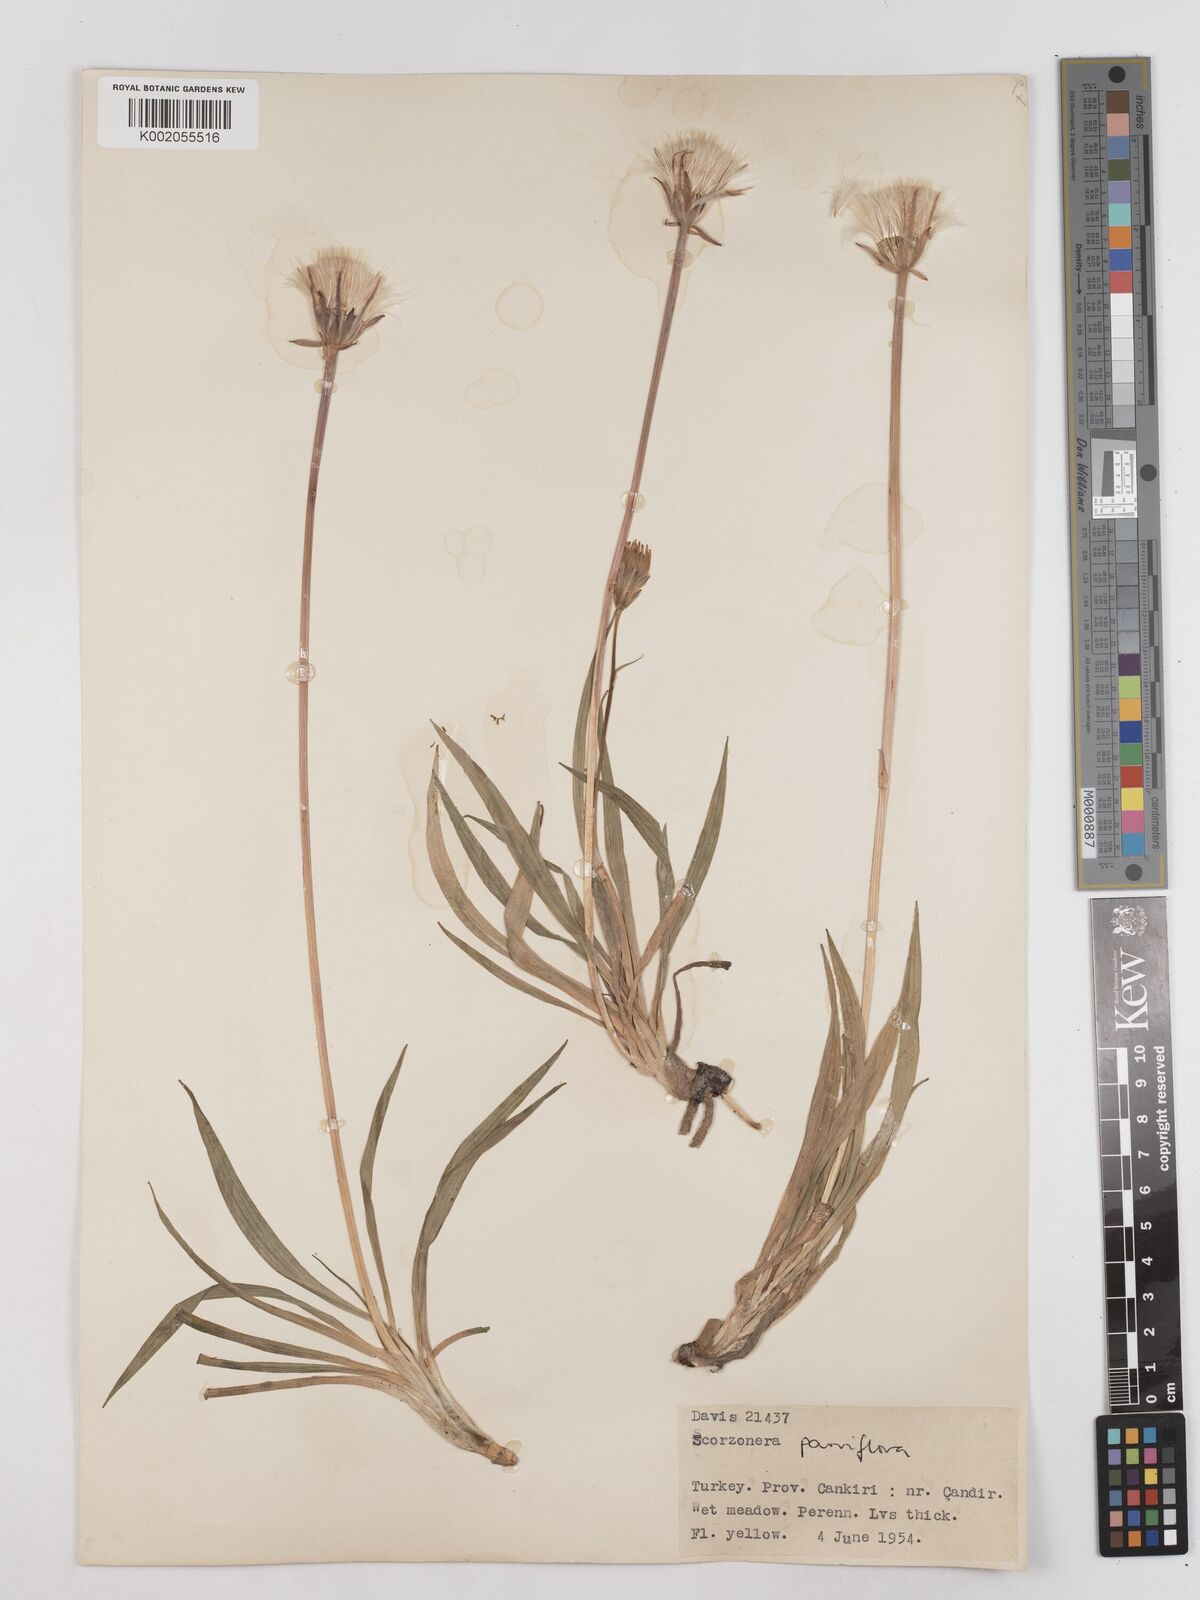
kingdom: Plantae
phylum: Tracheophyta
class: Magnoliopsida
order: Asterales
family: Asteraceae
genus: Scorzonera
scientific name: Scorzonera parviflora
